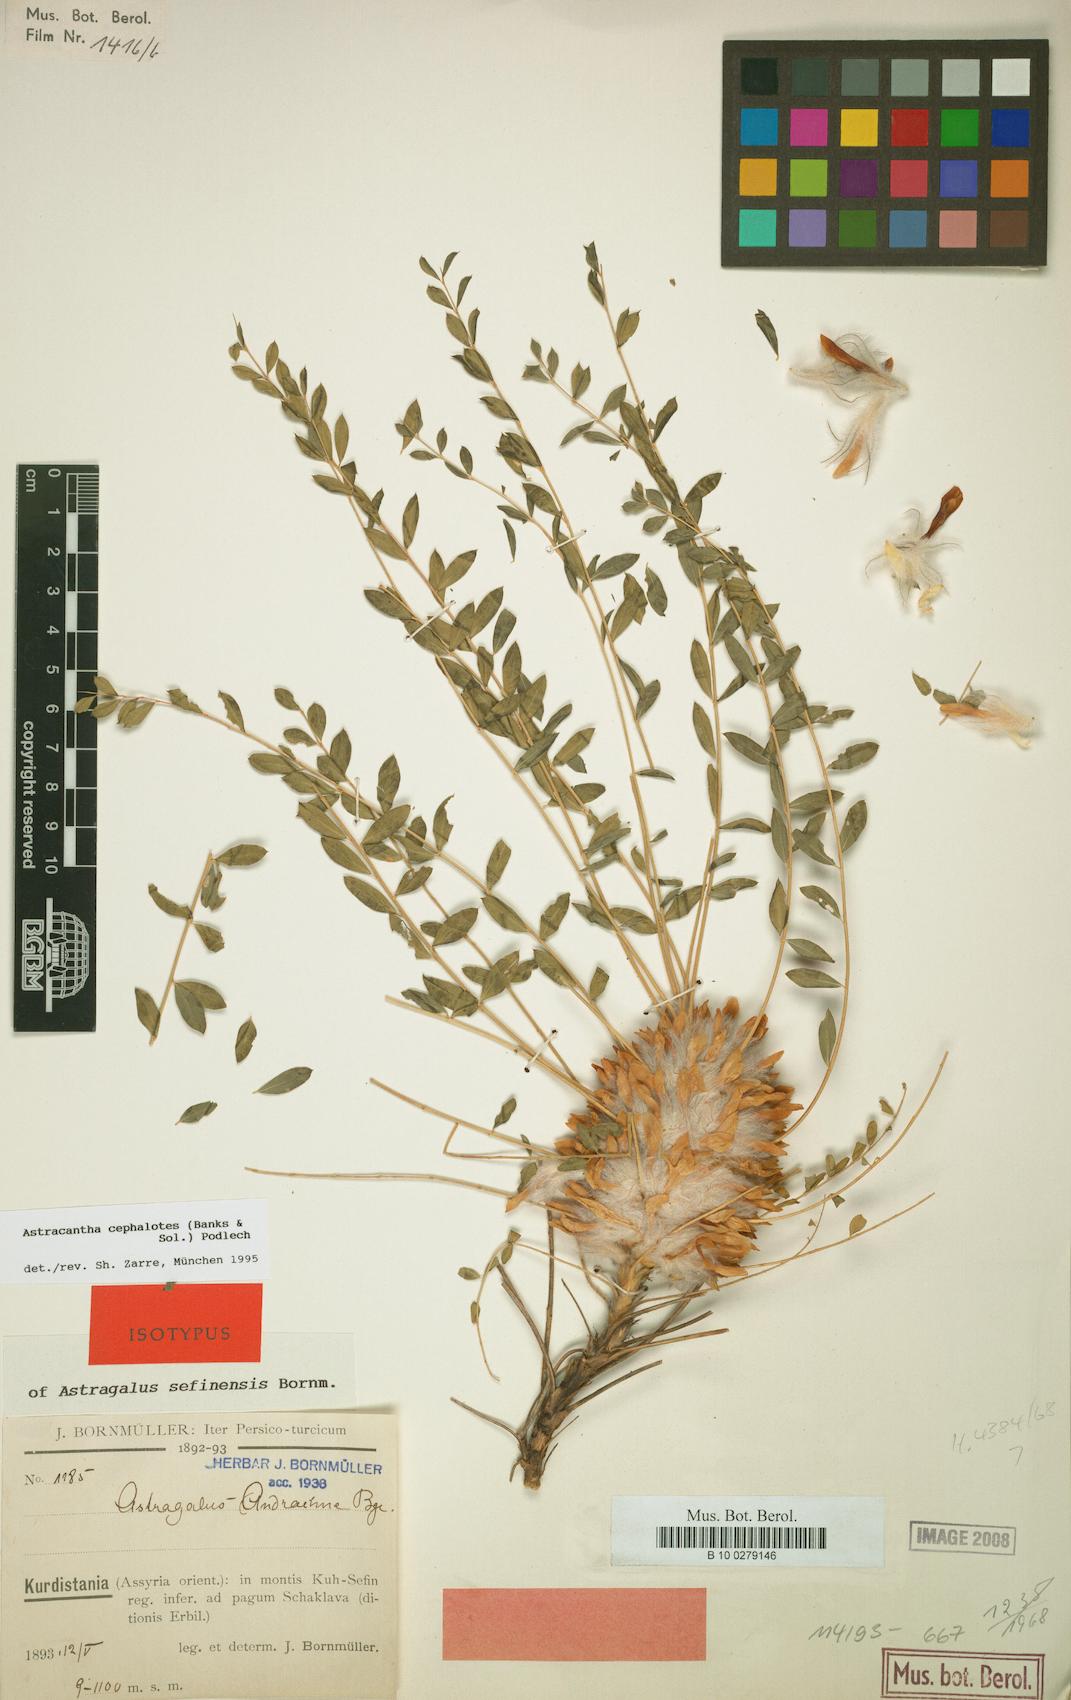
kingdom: Plantae
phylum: Tracheophyta
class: Magnoliopsida
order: Fabales
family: Fabaceae
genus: Astragalus
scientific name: Astragalus cephalotes
